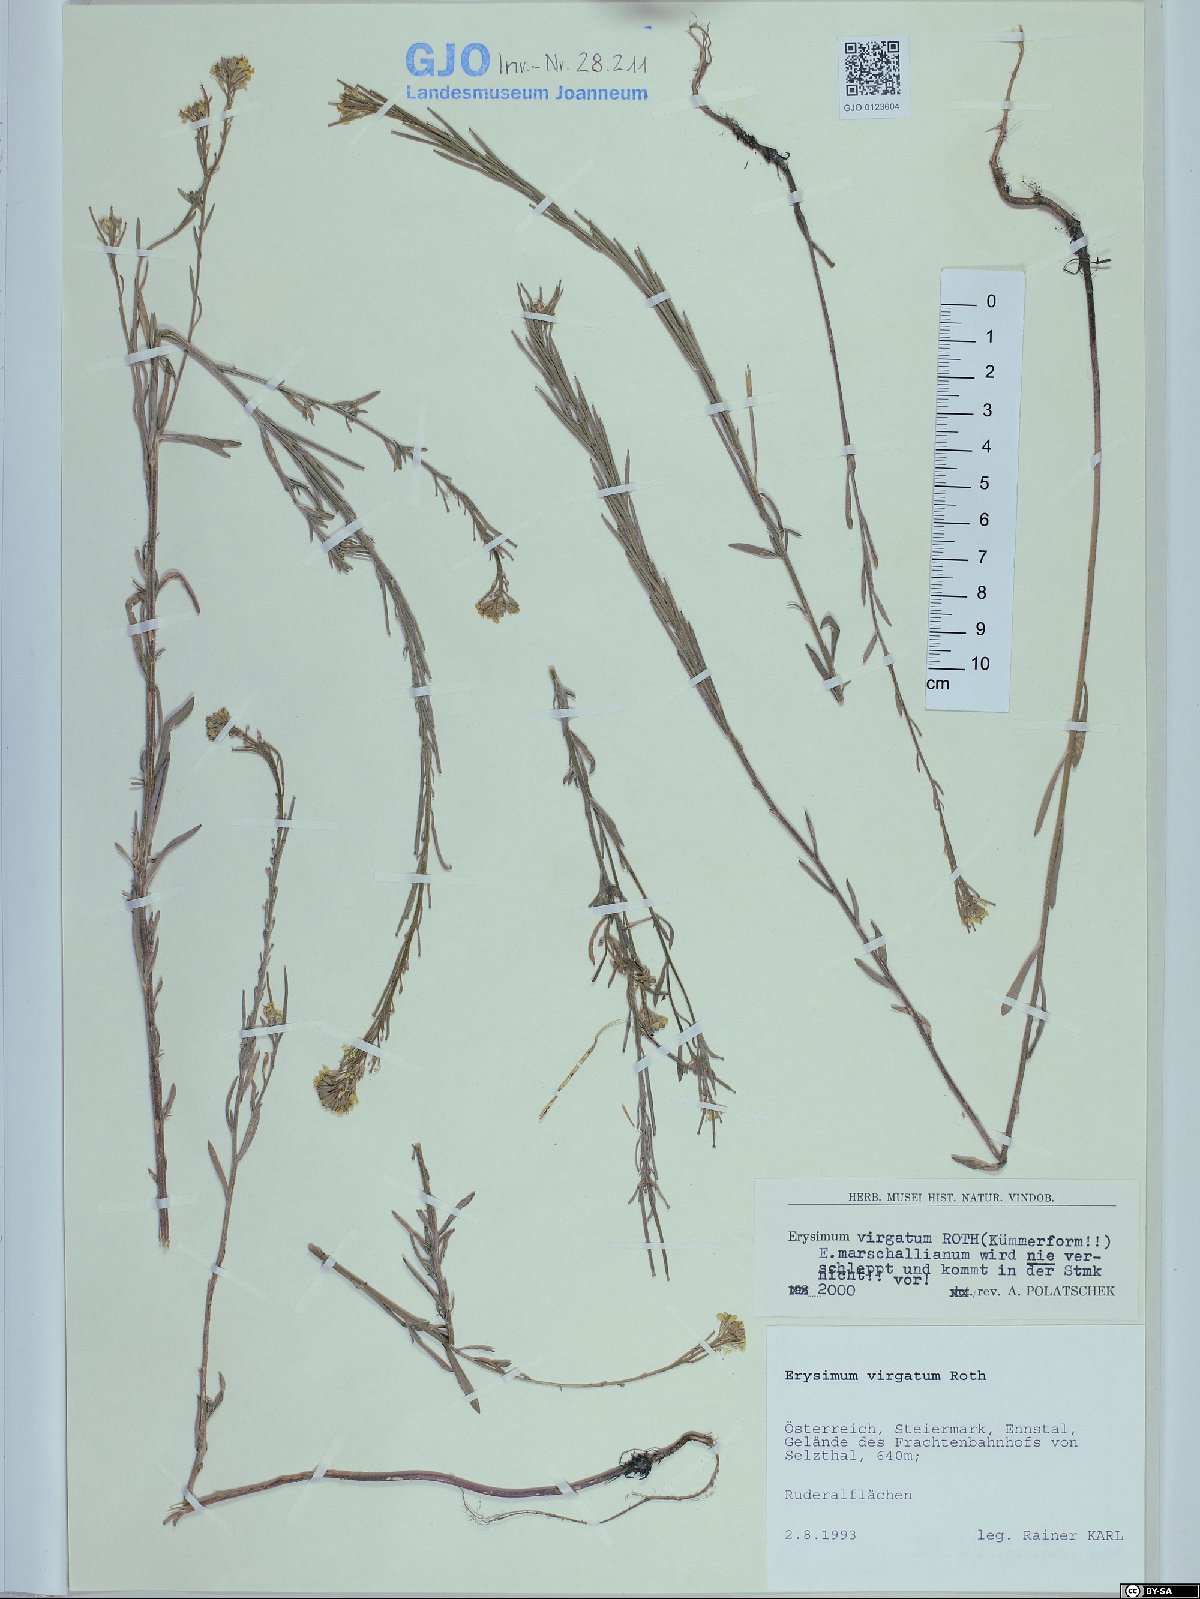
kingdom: Plantae
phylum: Tracheophyta
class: Magnoliopsida
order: Brassicales
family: Brassicaceae
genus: Erysimum
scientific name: Erysimum virgatum
